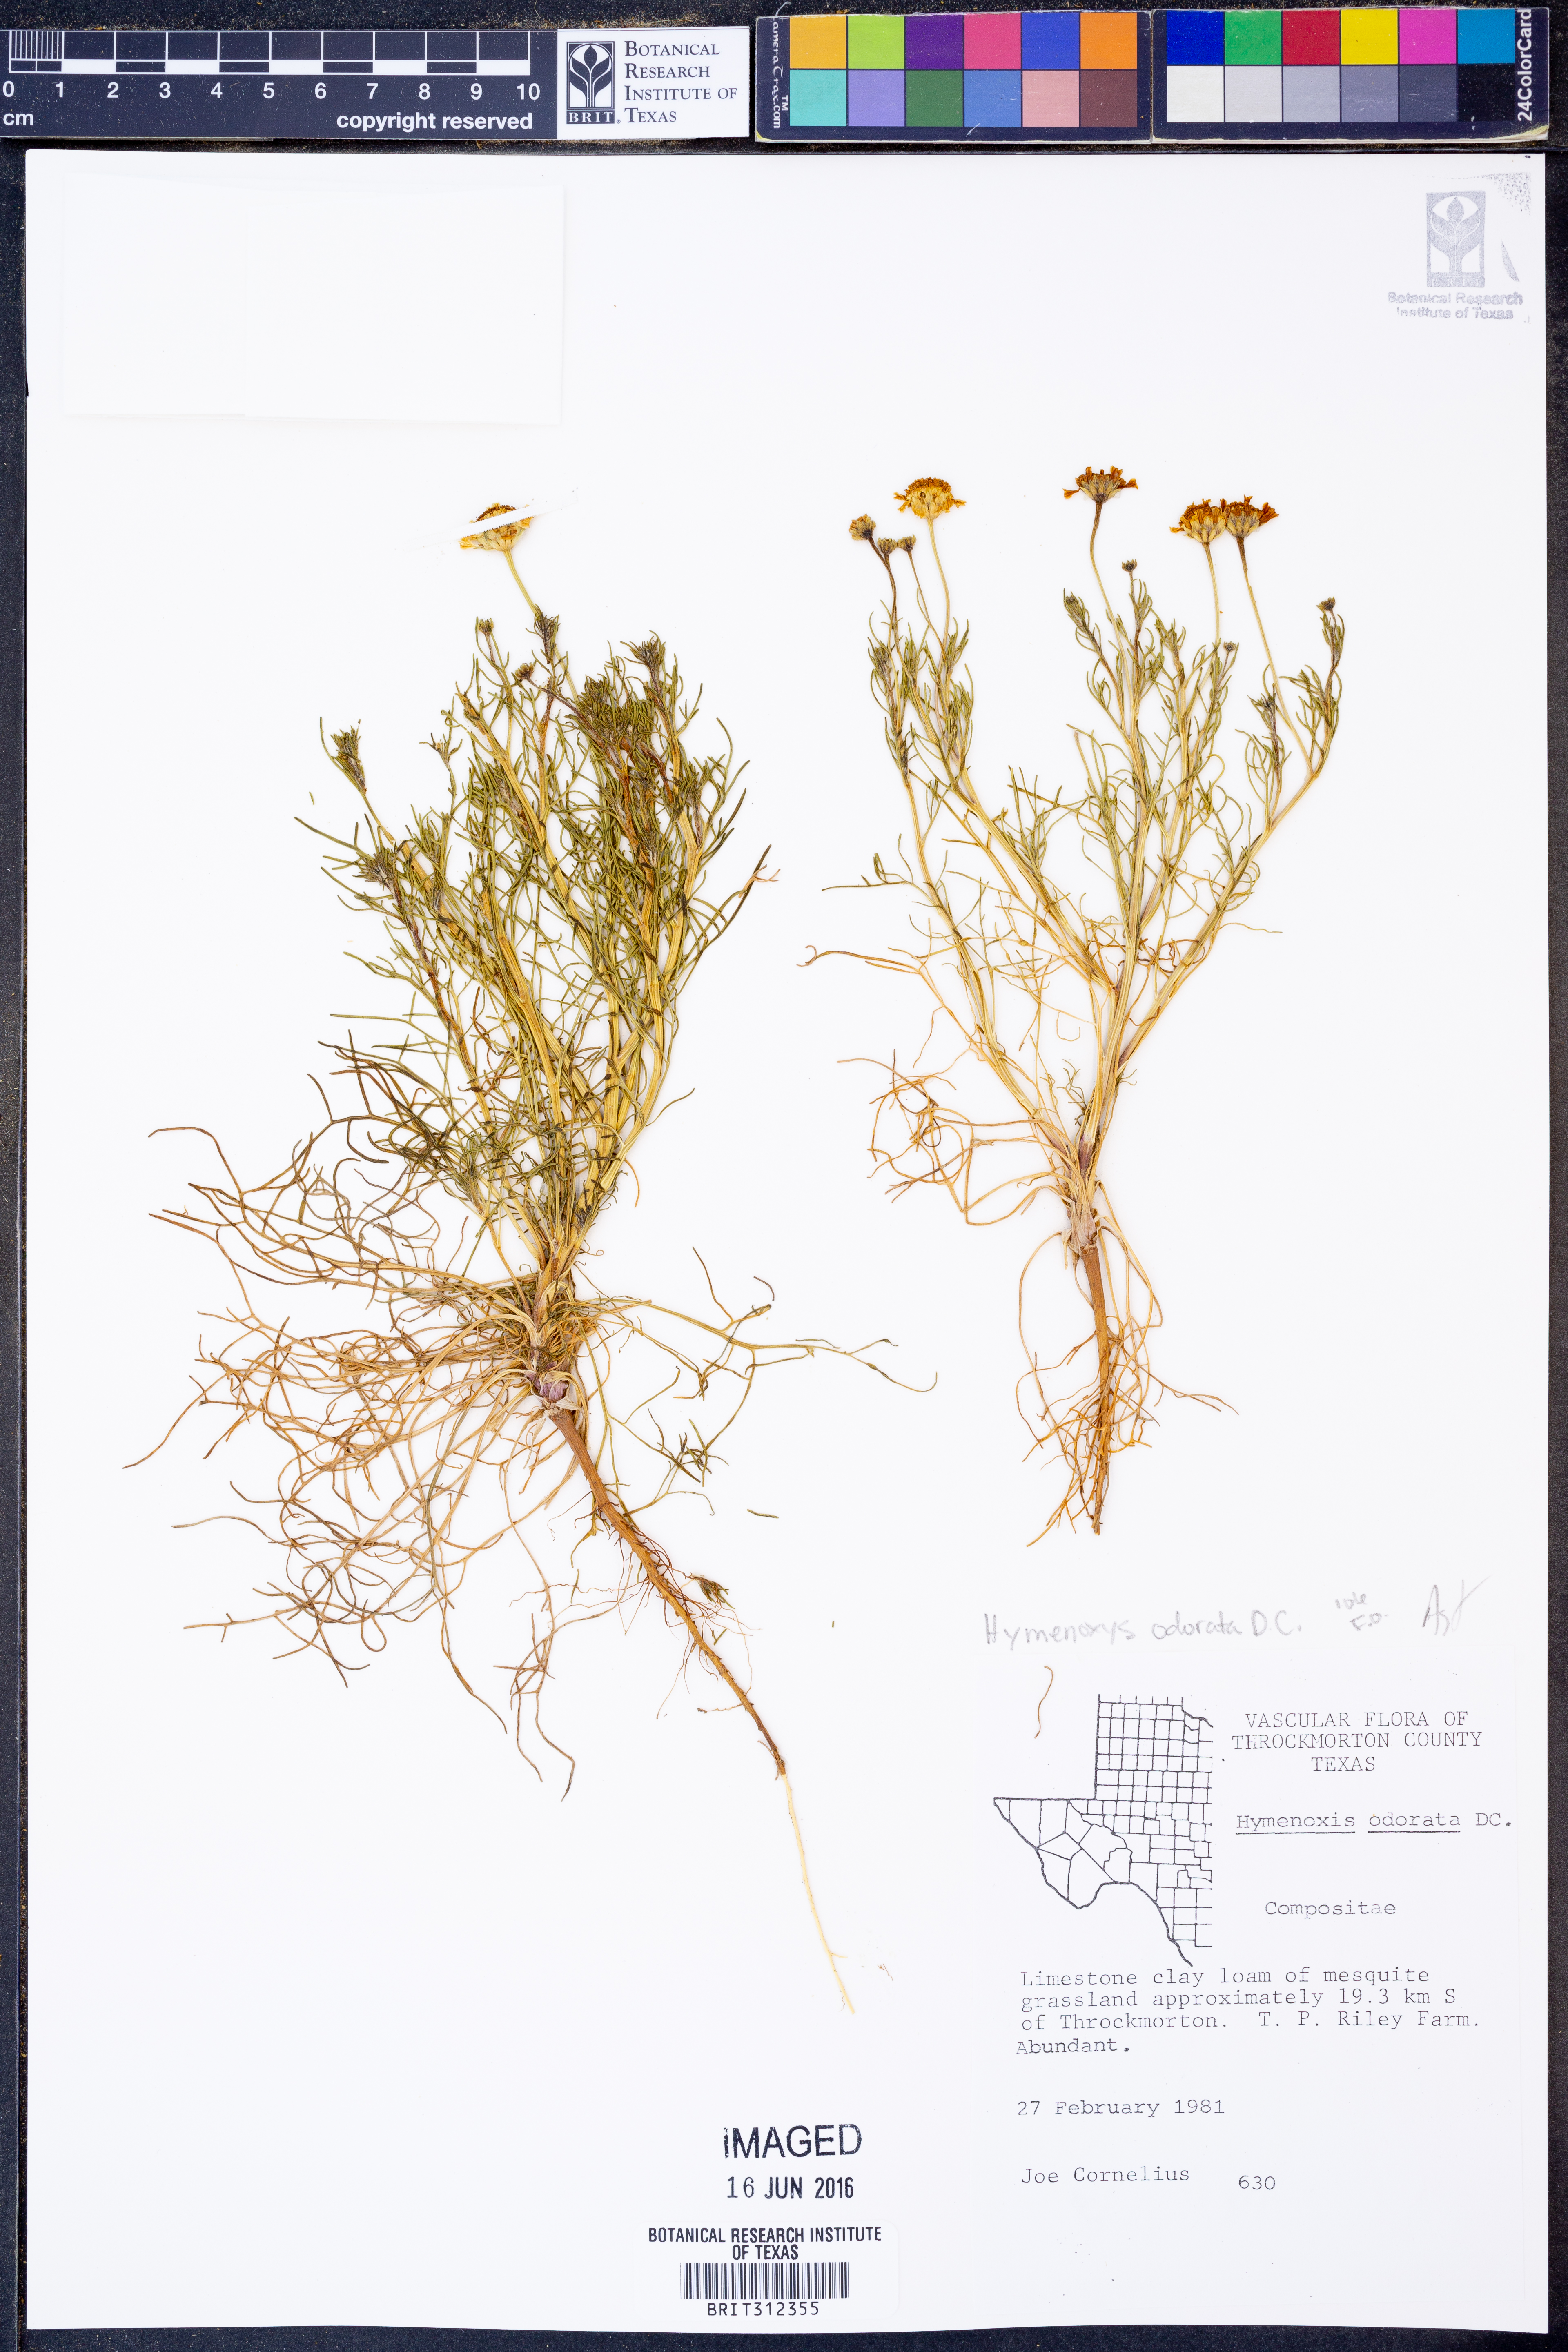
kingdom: Plantae
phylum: Tracheophyta
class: Magnoliopsida
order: Asterales
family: Asteraceae
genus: Hymenoxys
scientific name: Hymenoxys odorata
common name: Bitter rubberweed
